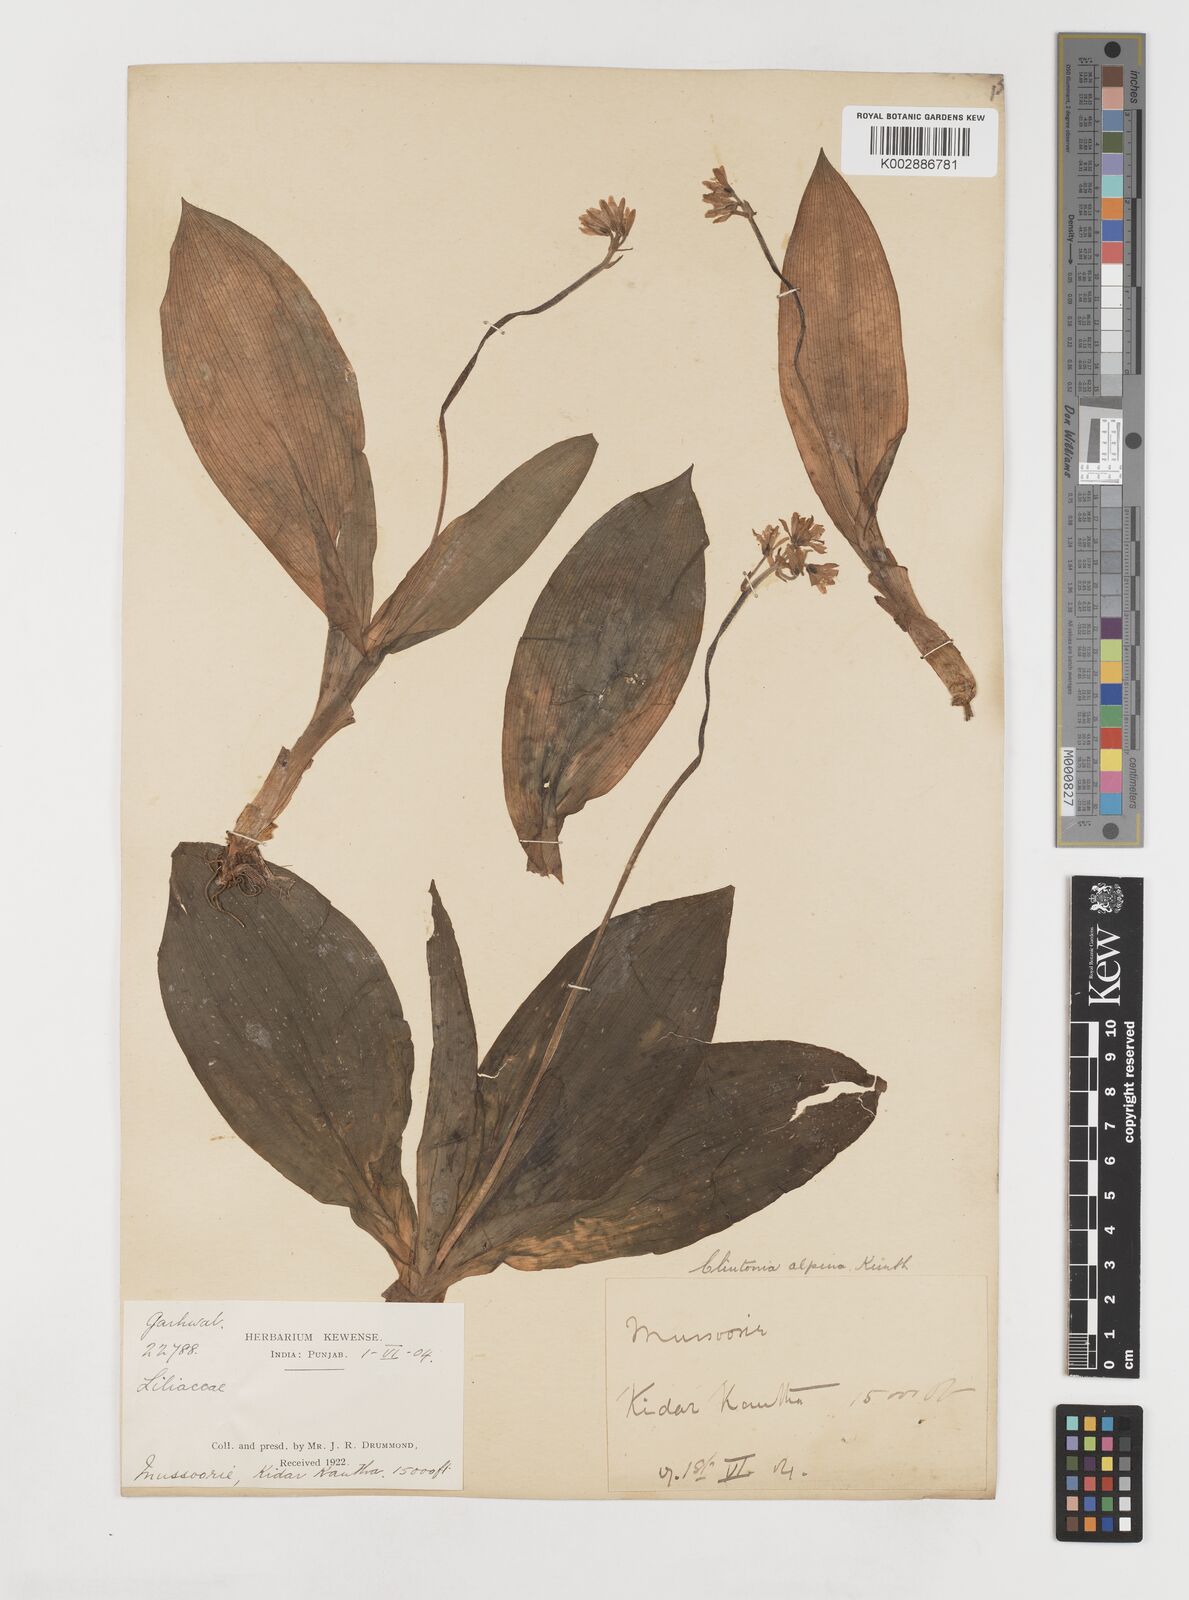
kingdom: Plantae
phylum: Tracheophyta
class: Liliopsida
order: Liliales
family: Liliaceae
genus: Clintonia
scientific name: Clintonia udensis
